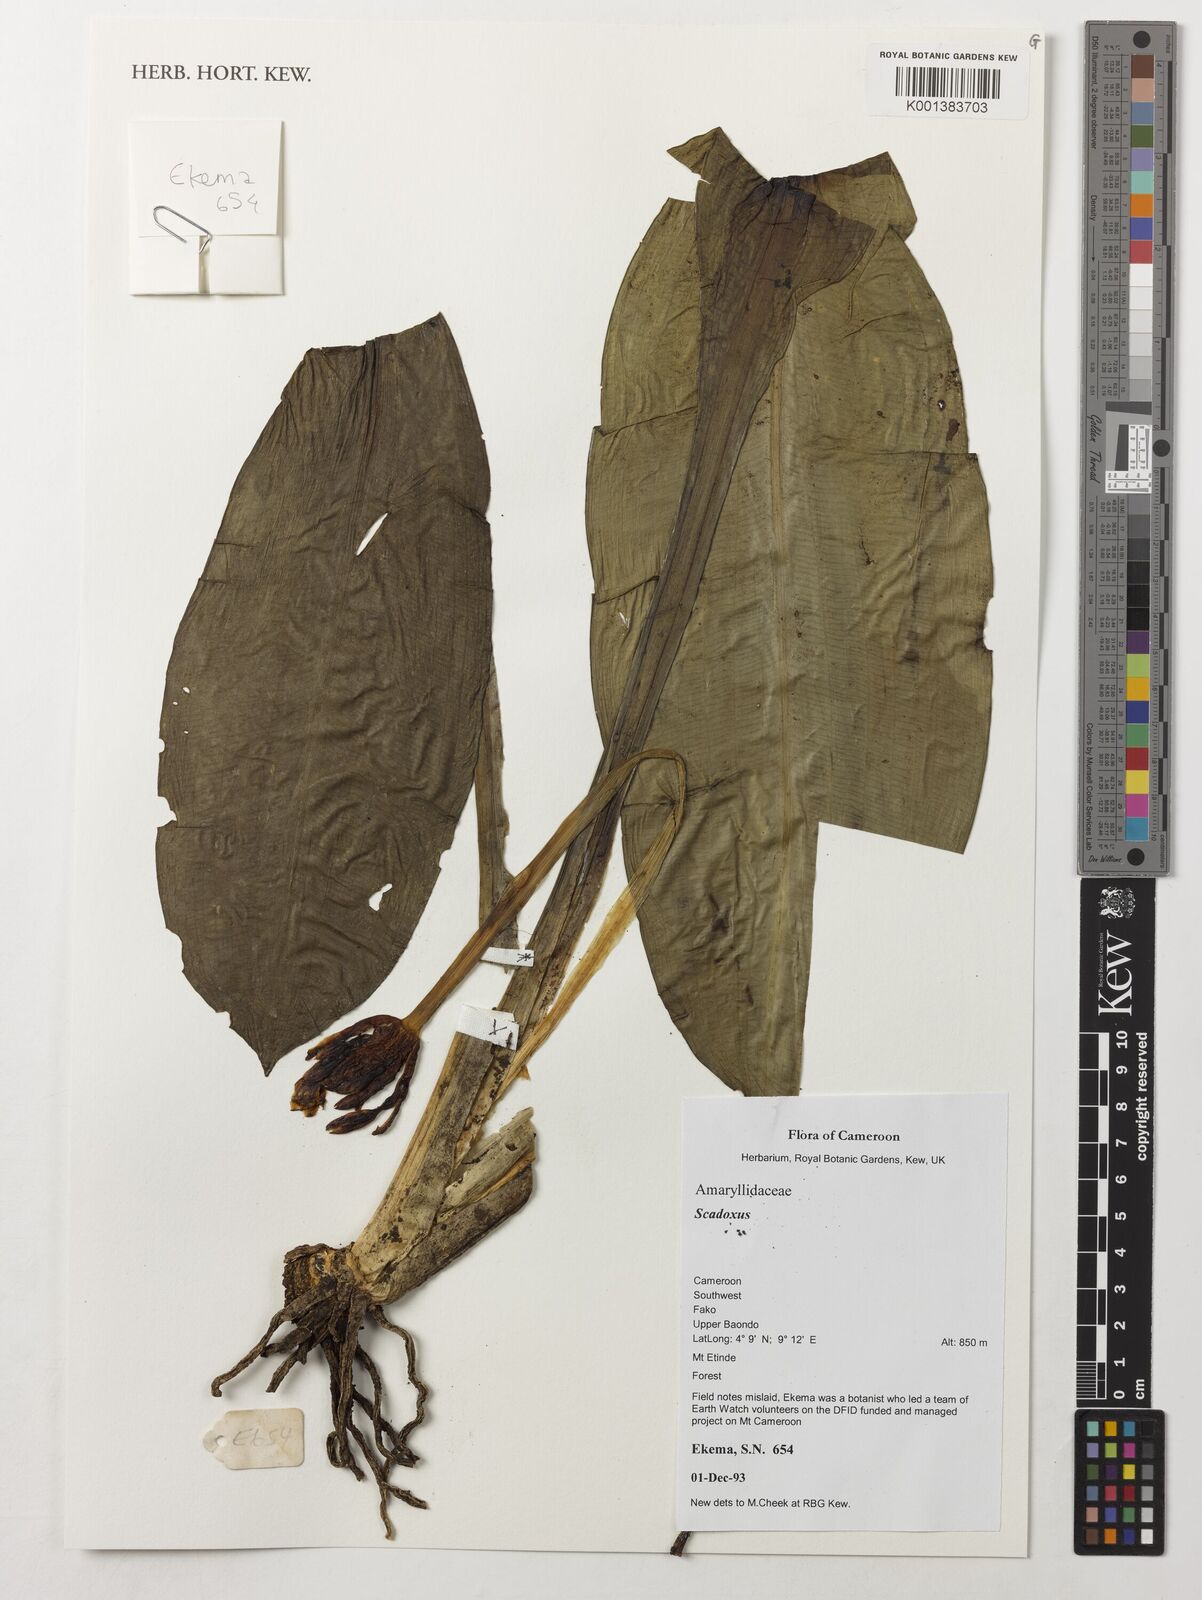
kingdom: Plantae
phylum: Tracheophyta
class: Liliopsida
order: Asparagales
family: Amaryllidaceae
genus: Scadoxus
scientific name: Scadoxus
